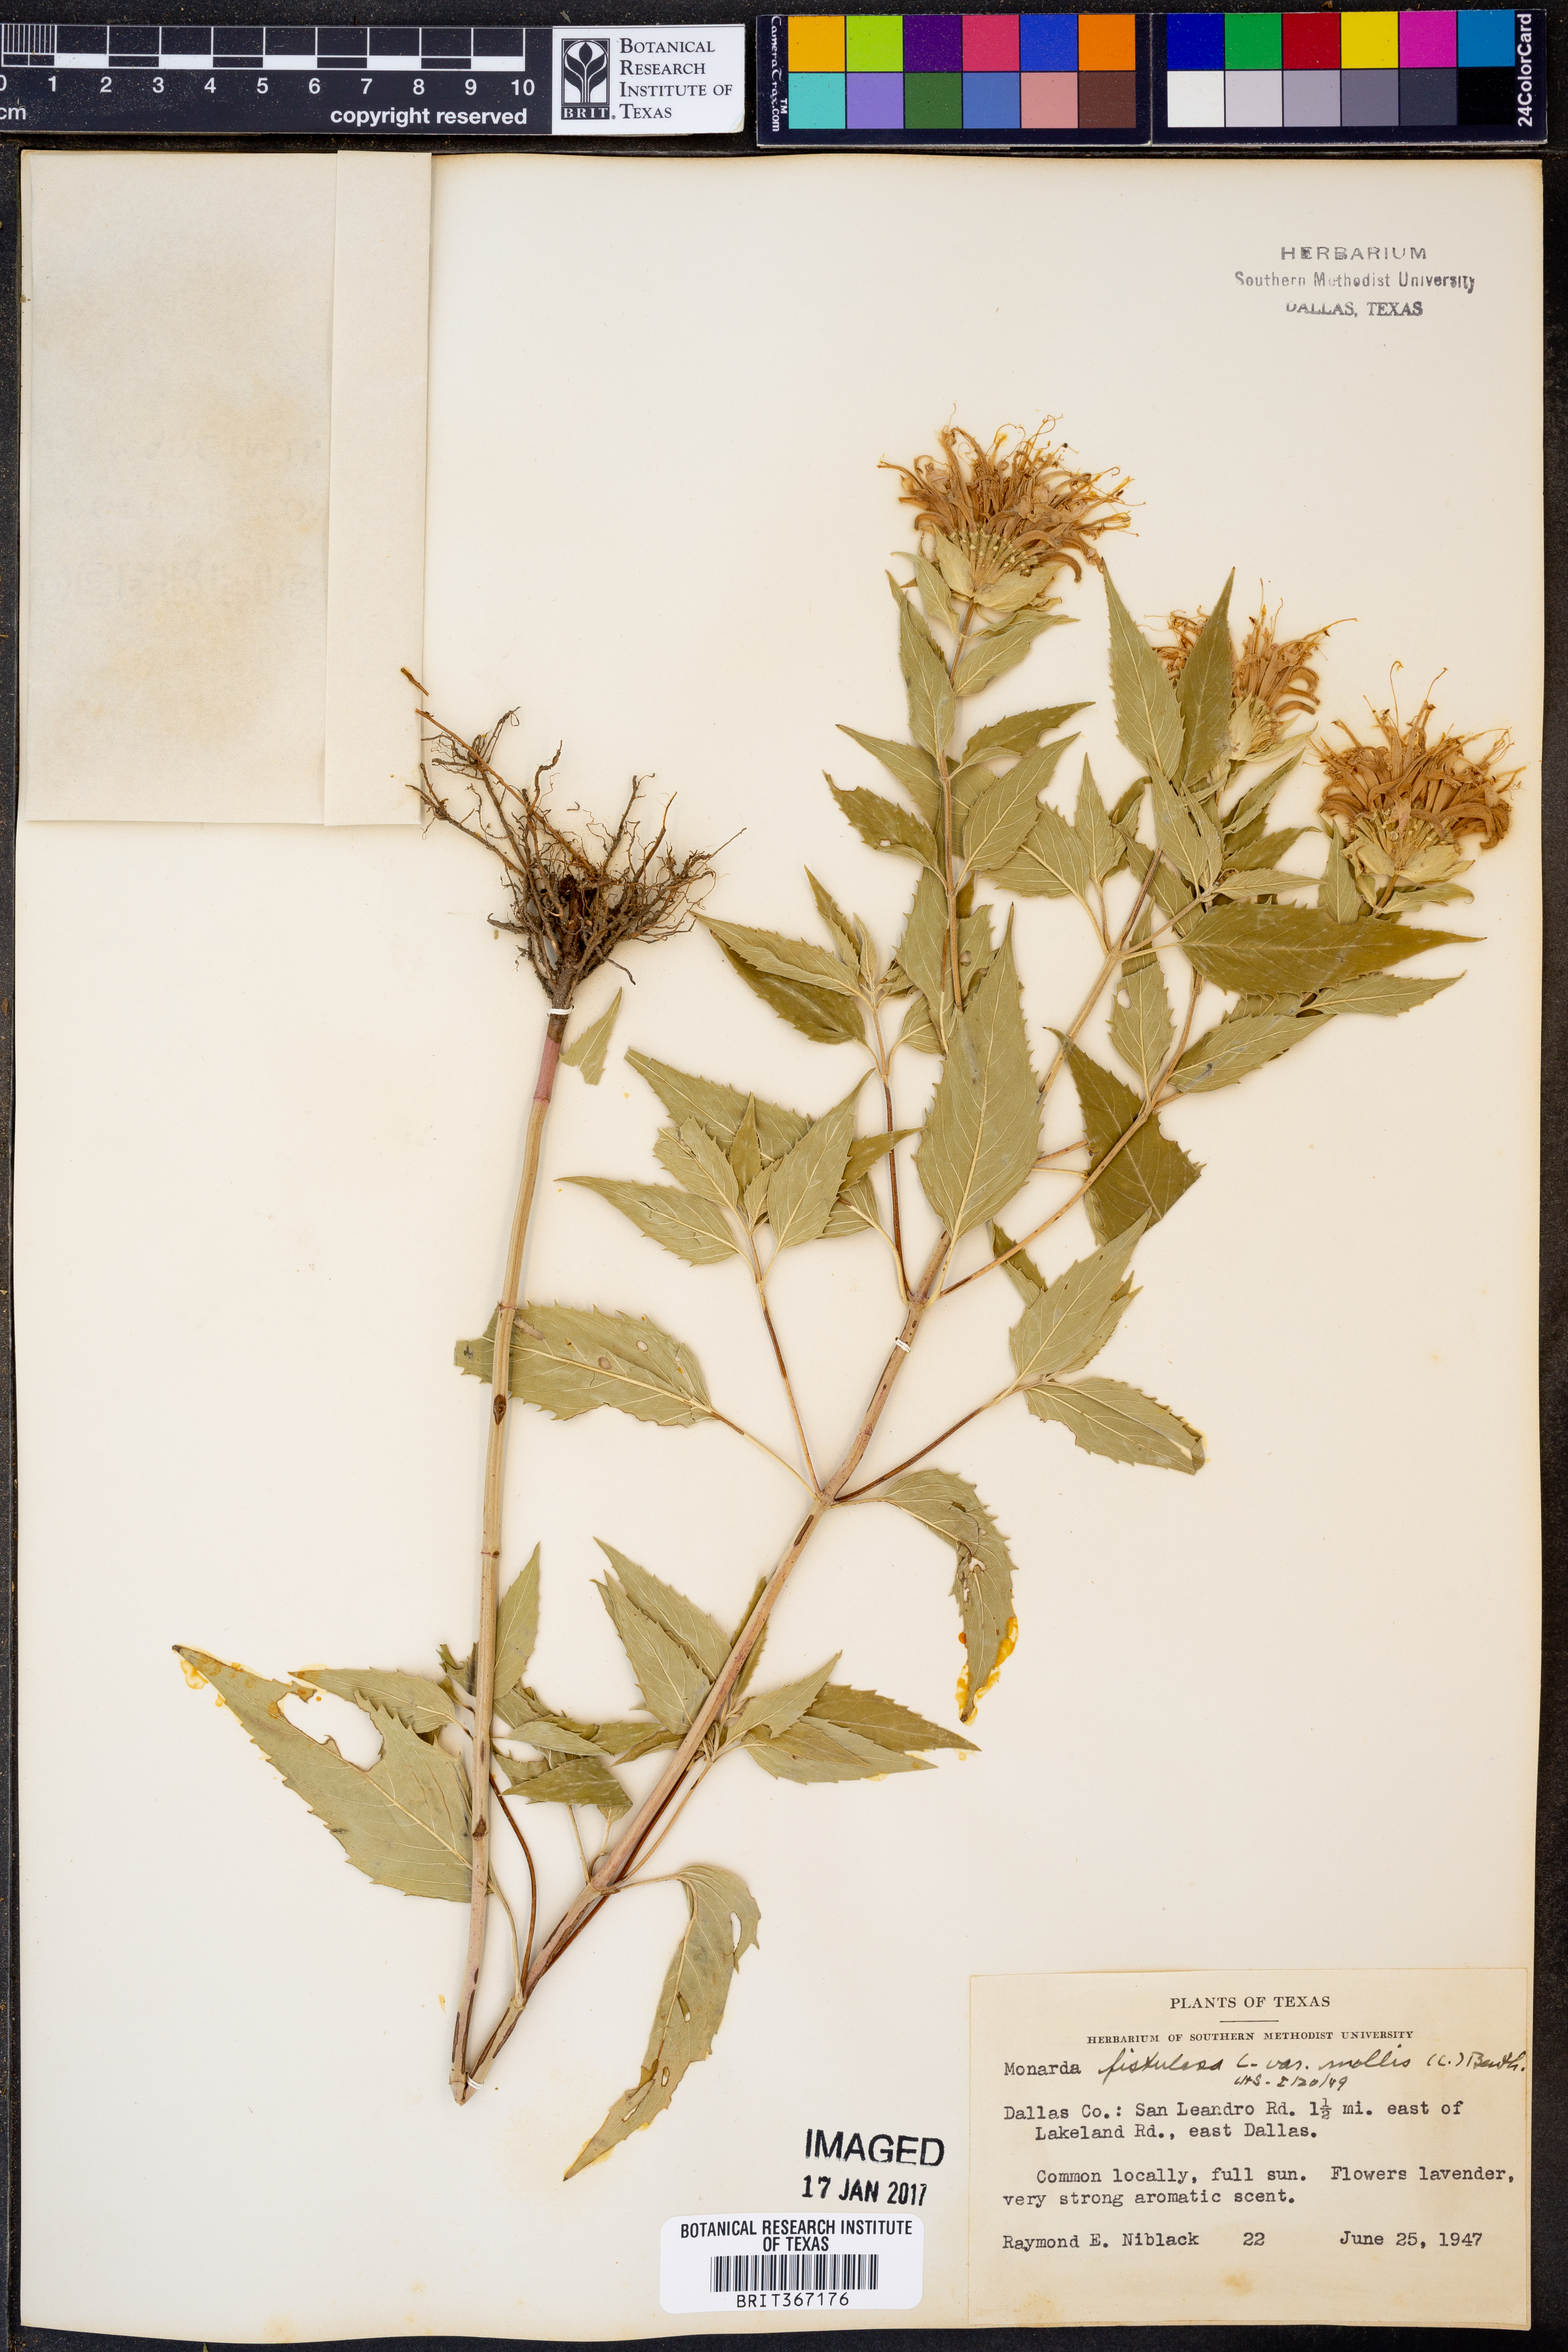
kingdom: Plantae
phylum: Tracheophyta
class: Magnoliopsida
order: Lamiales
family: Lamiaceae
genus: Monarda
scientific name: Monarda fistulosa
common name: Purple beebalm
